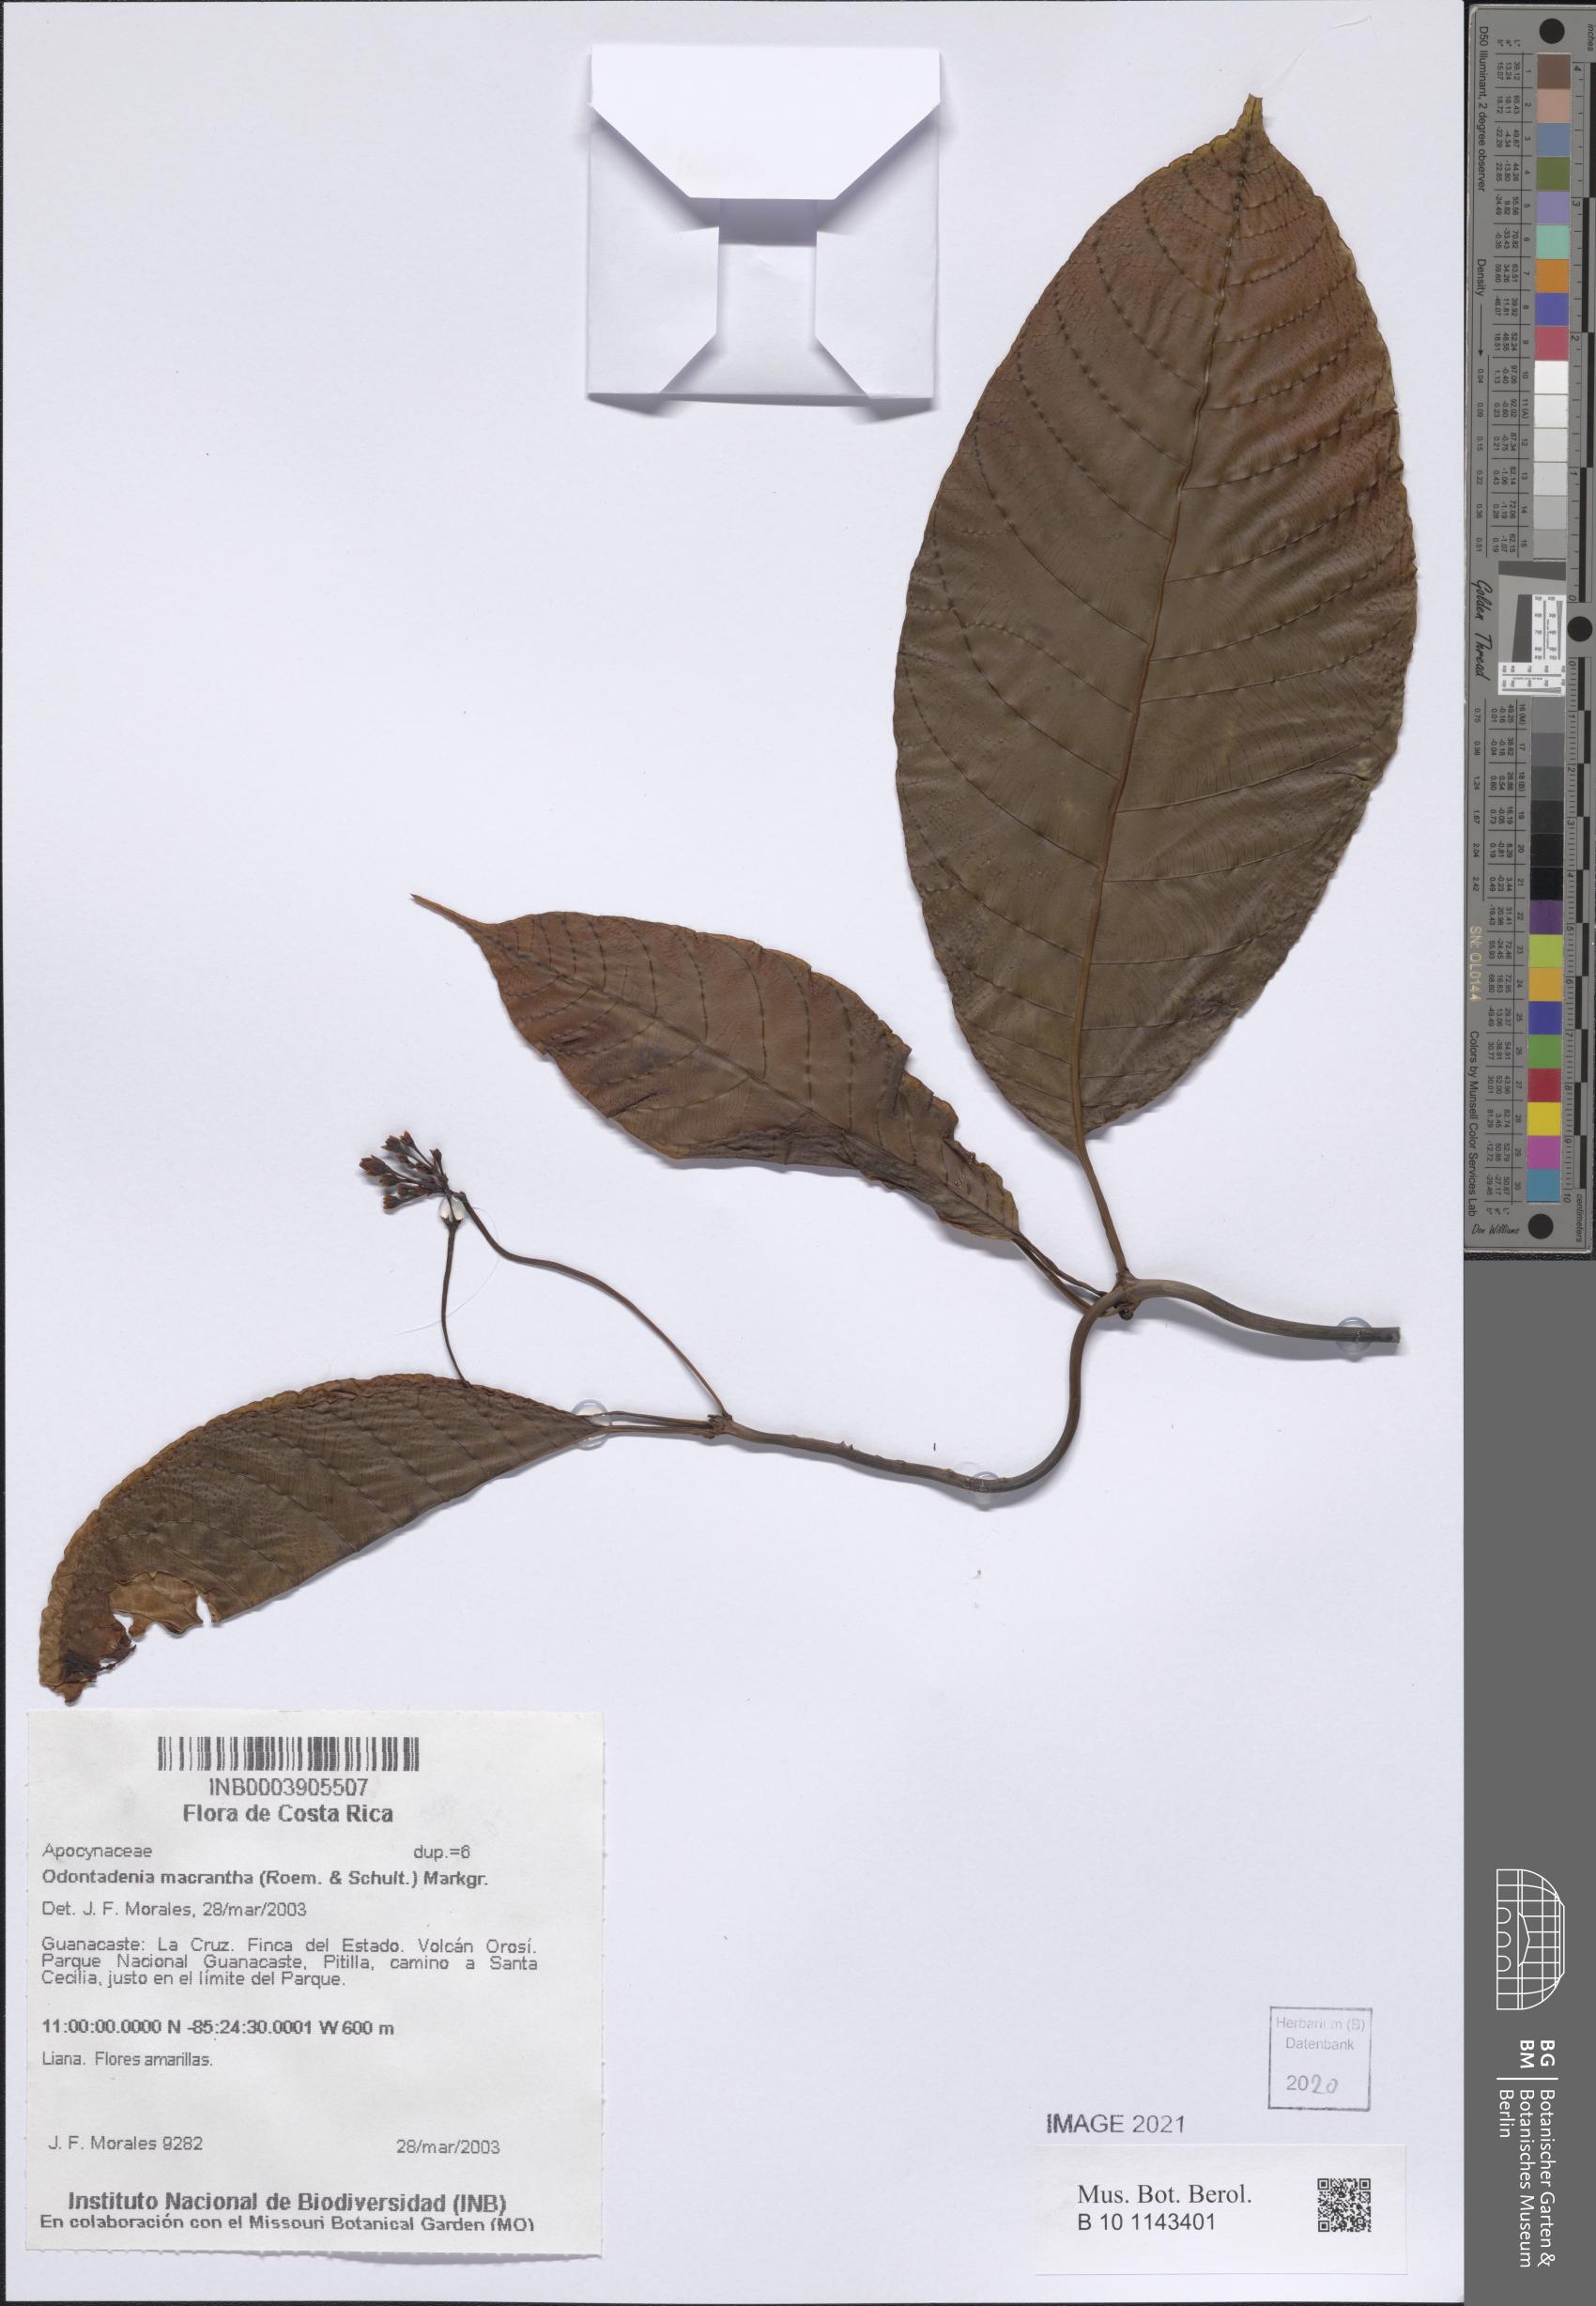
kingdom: Plantae
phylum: Tracheophyta
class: Magnoliopsida
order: Gentianales
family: Apocynaceae
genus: Odontadenia
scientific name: Odontadenia semidigyna
